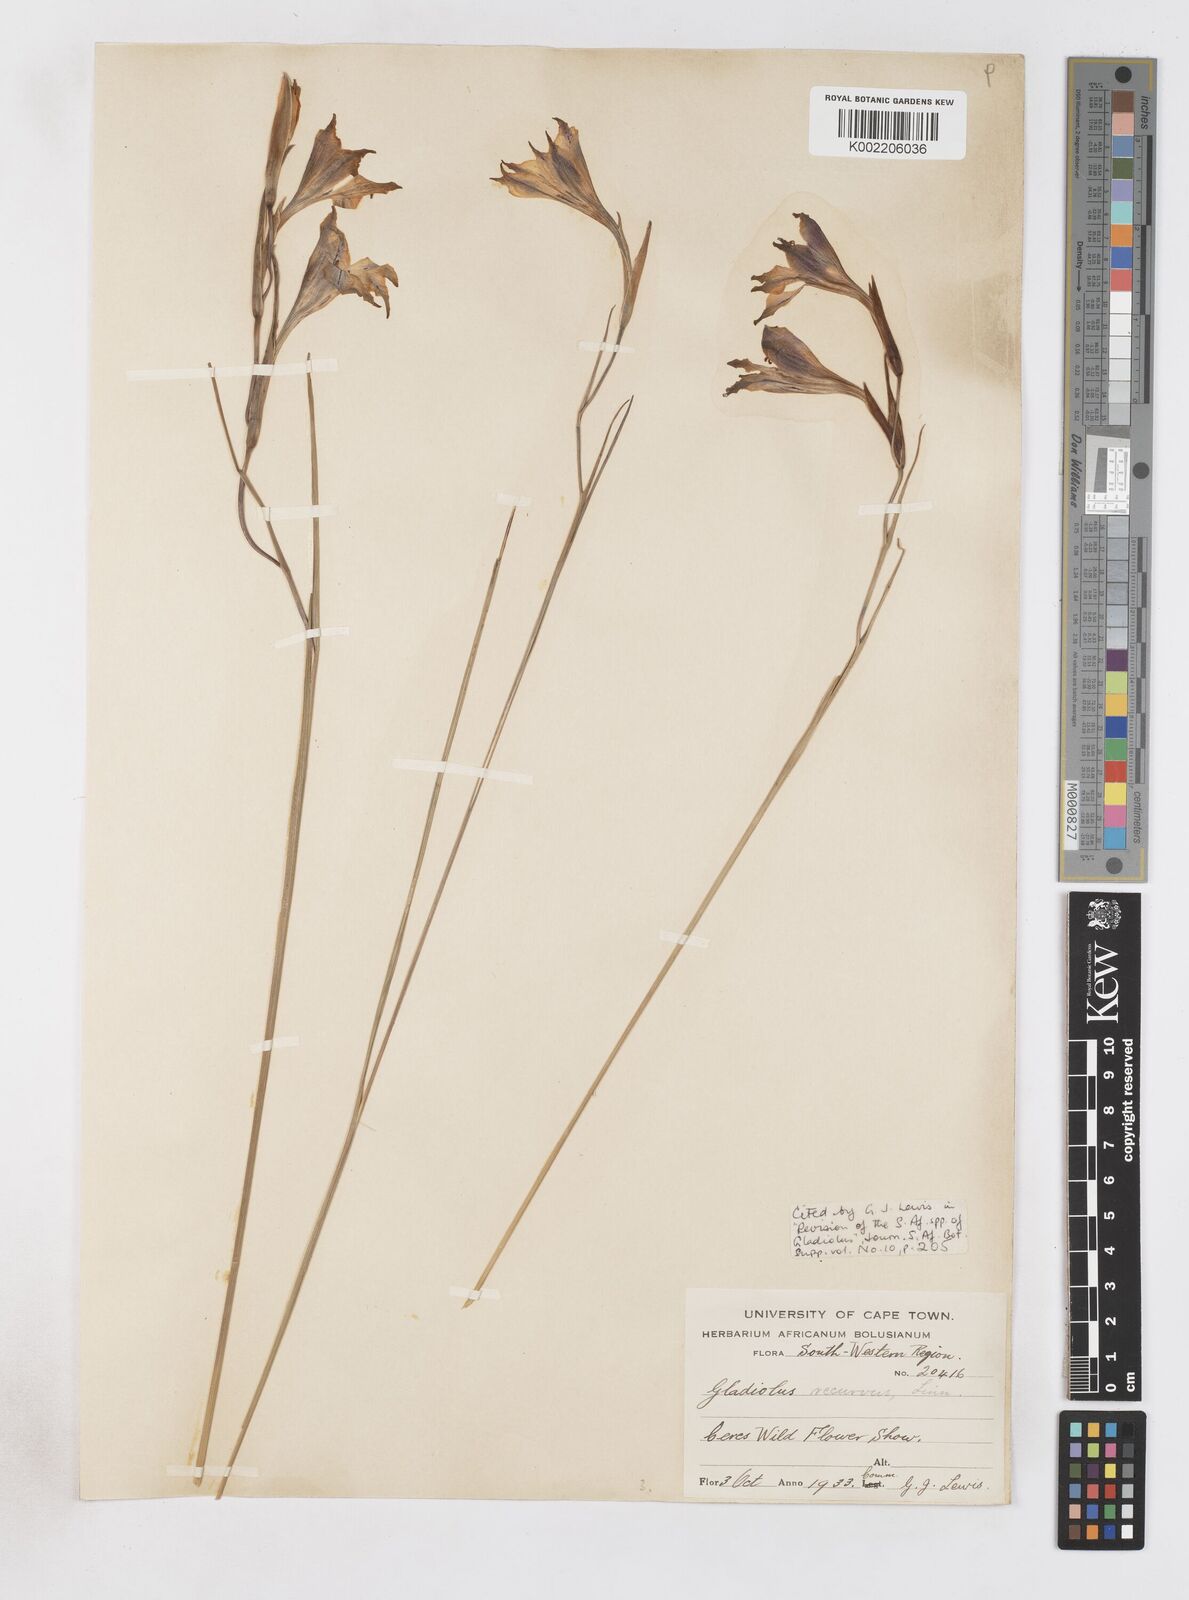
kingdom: Plantae
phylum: Tracheophyta
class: Liliopsida
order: Asparagales
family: Iridaceae
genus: Gladiolus
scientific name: Gladiolus recurvus
